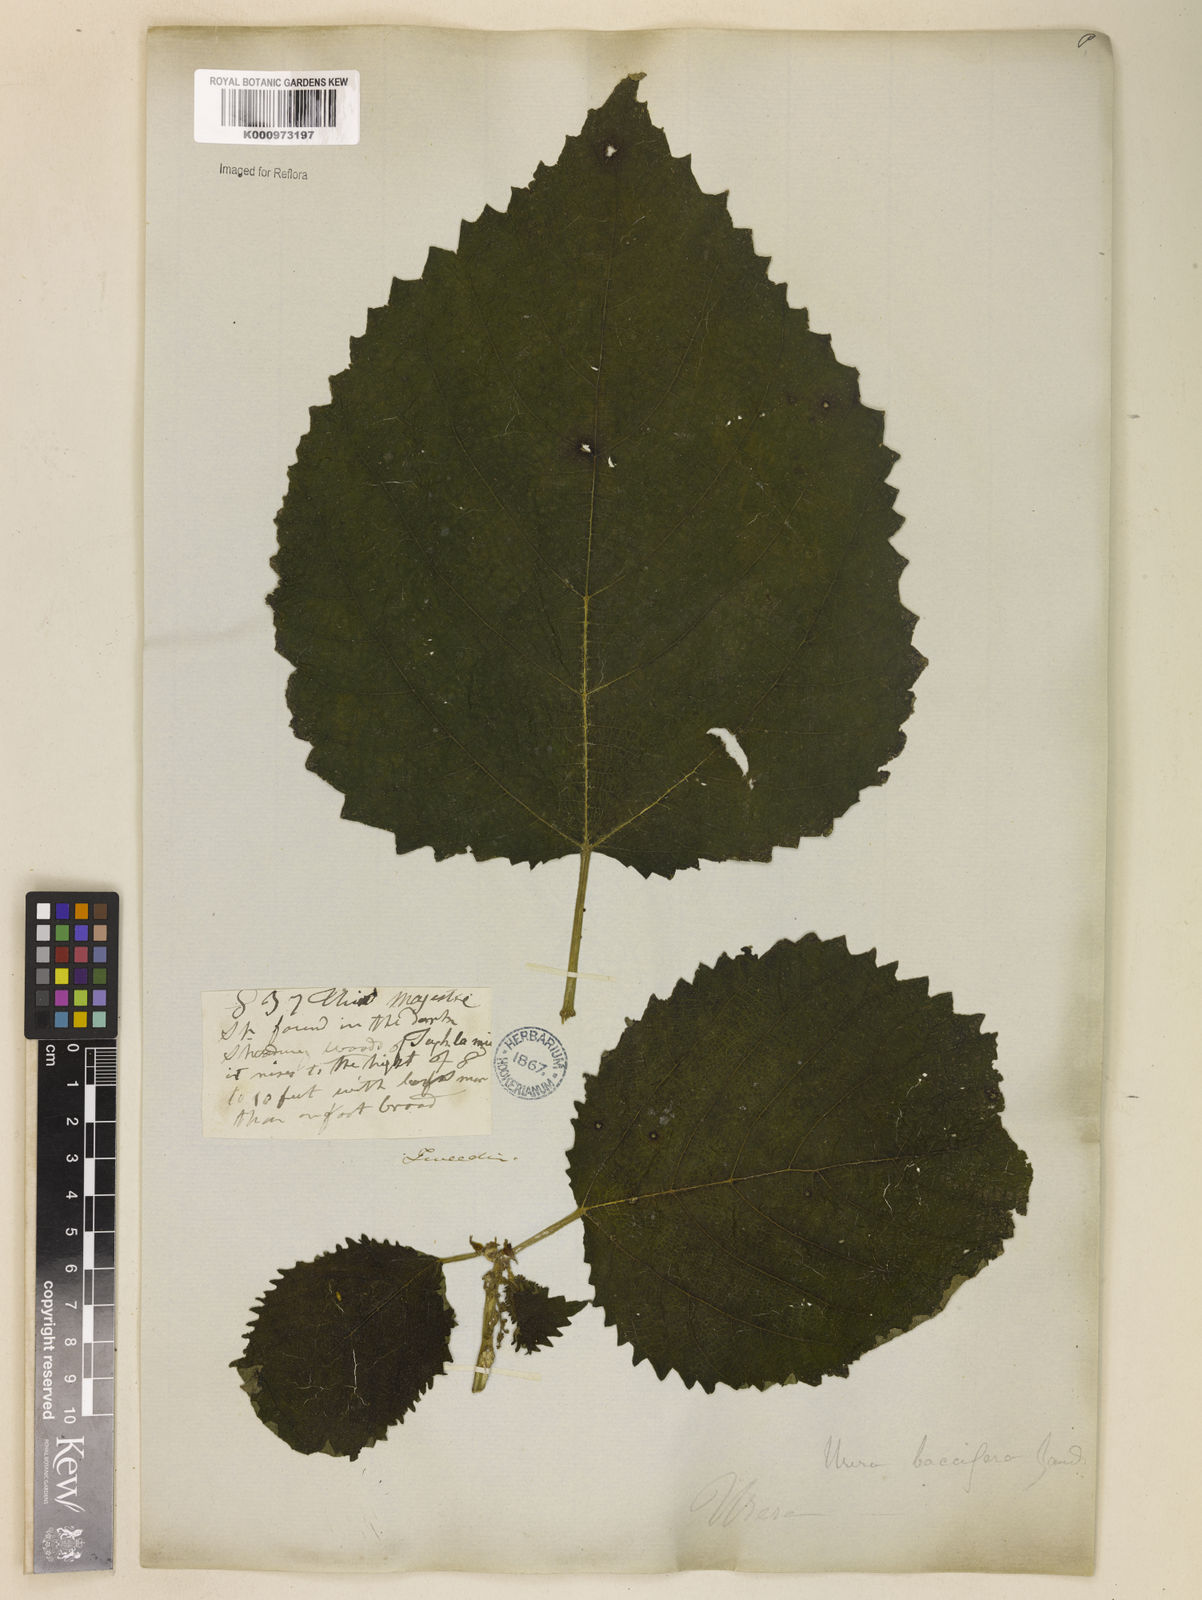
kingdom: Plantae
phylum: Tracheophyta
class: Magnoliopsida
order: Rosales
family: Urticaceae
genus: Urera
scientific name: Urera baccifera
